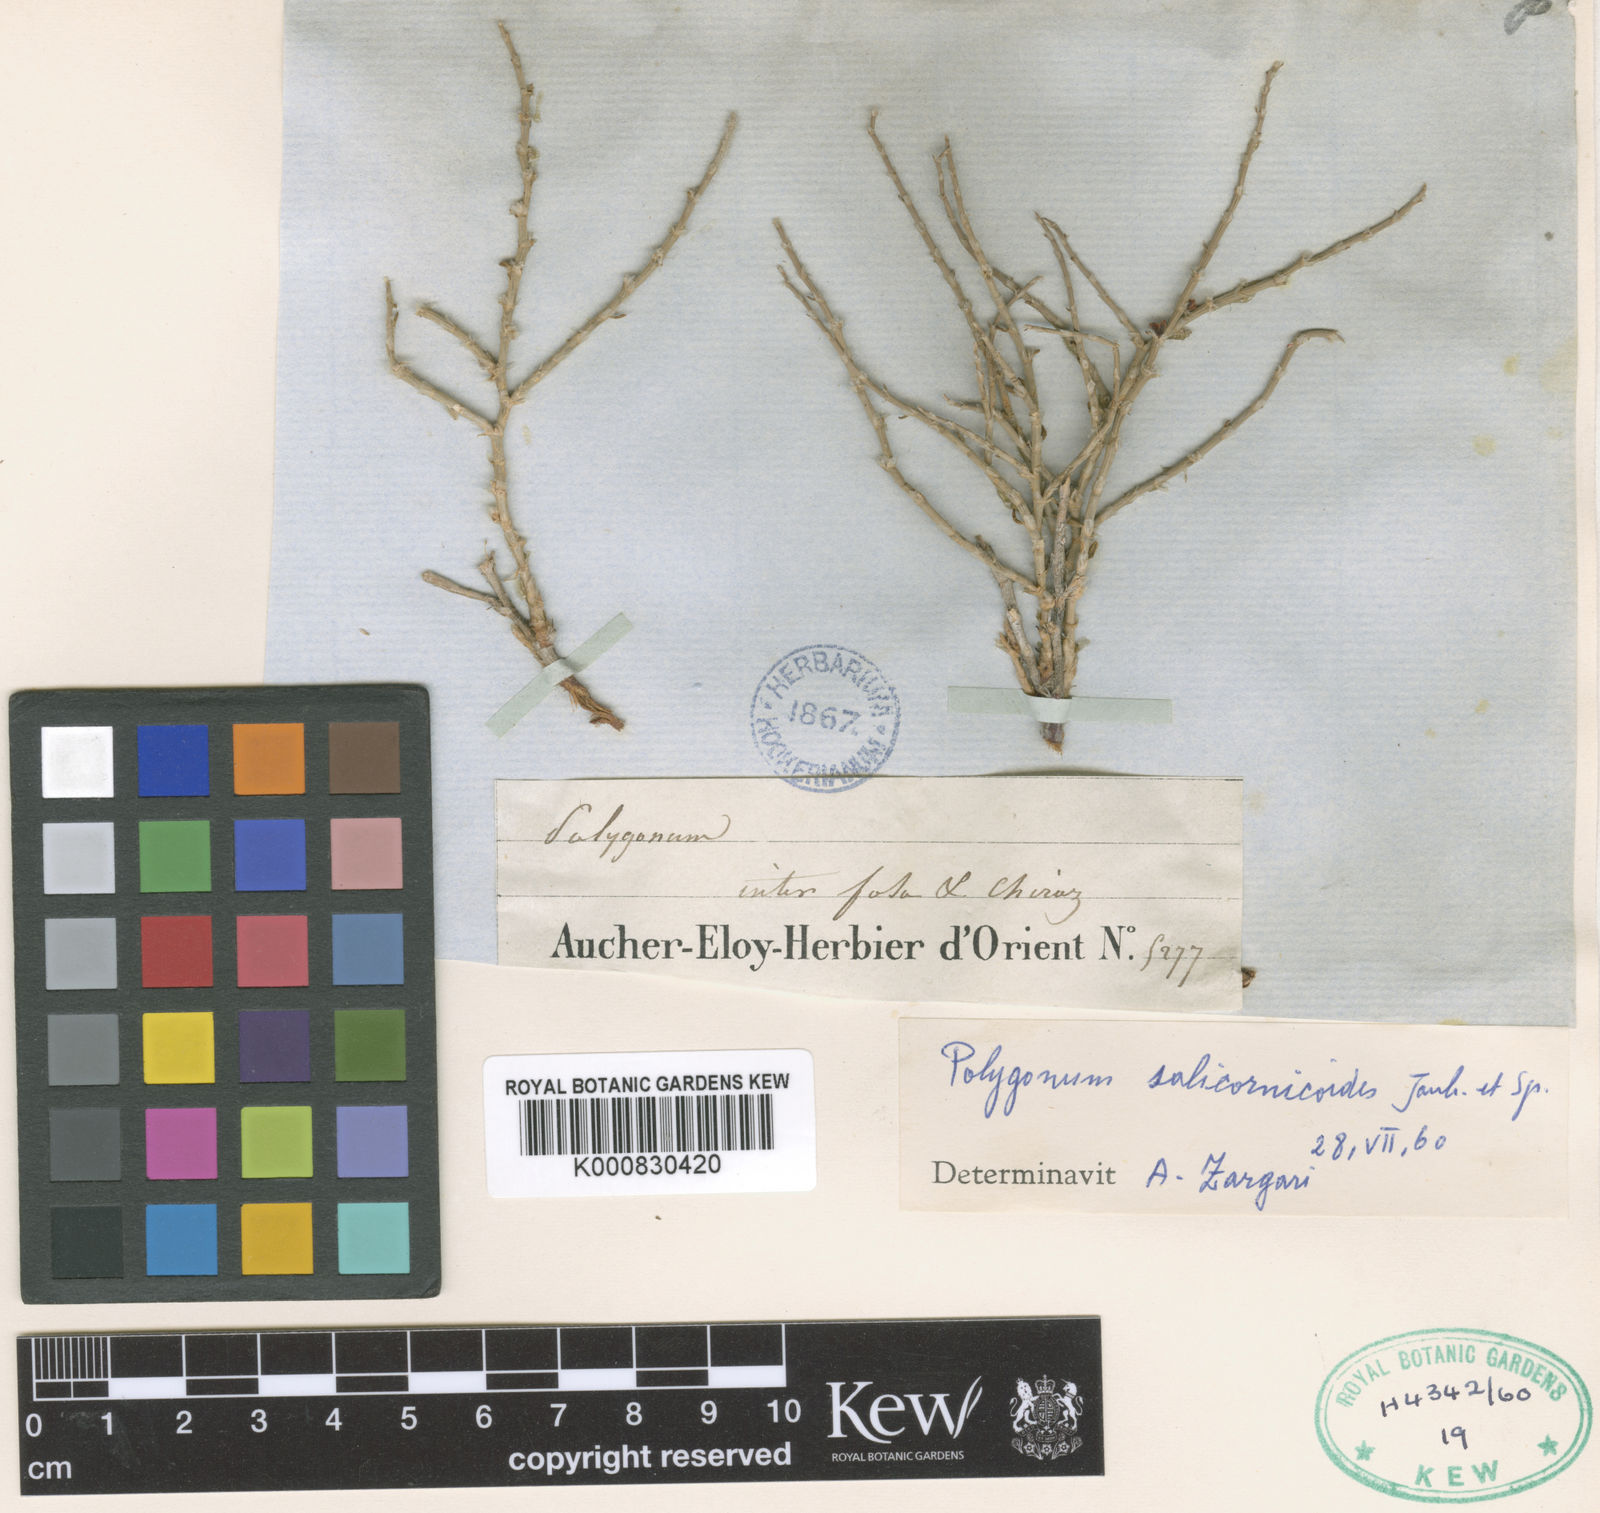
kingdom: Plantae
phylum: Tracheophyta
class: Magnoliopsida
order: Caryophyllales
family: Polygonaceae
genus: Polygonum
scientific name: Polygonum
